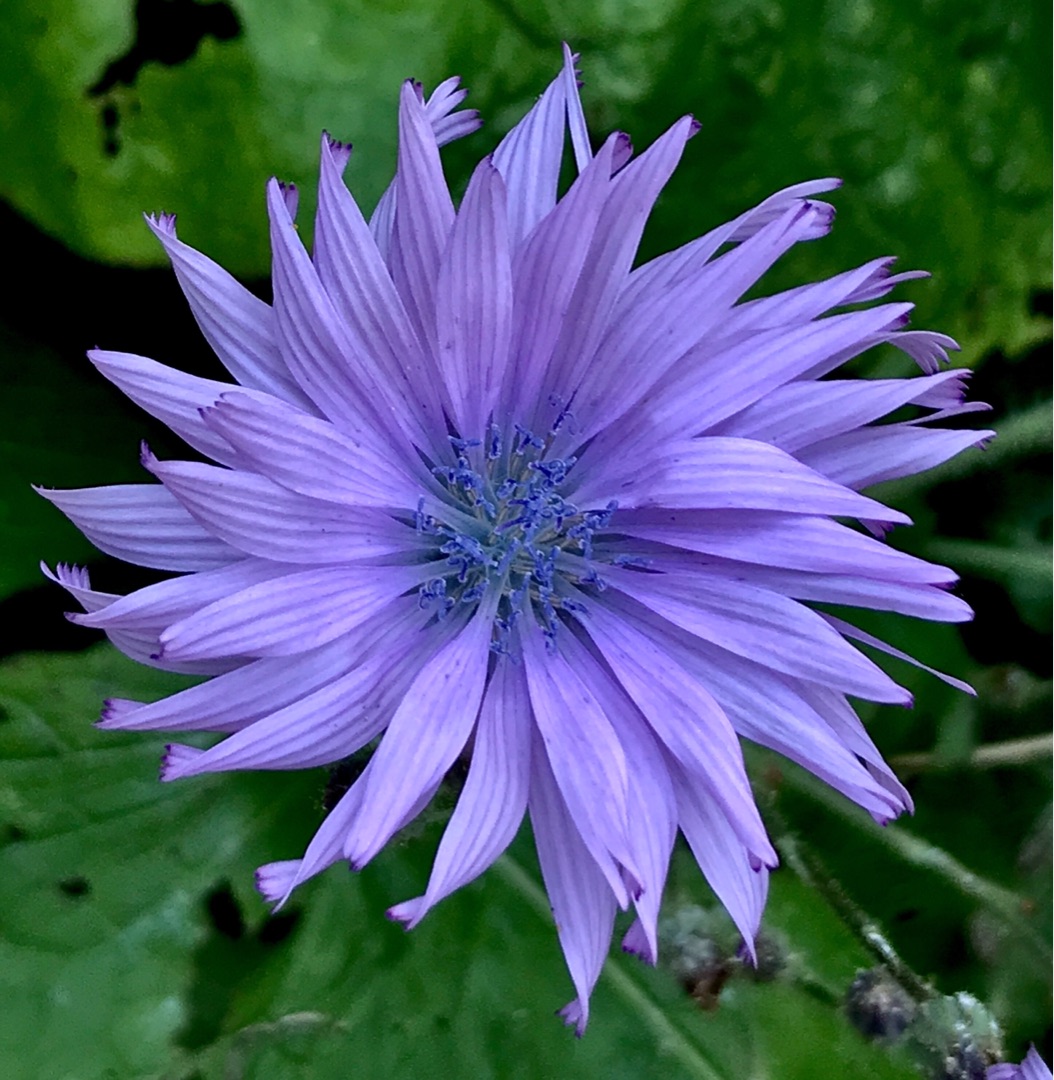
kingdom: Plantae
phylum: Tracheophyta
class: Magnoliopsida
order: Asterales
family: Asteraceae
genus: Lactuca
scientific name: Lactuca macrophylla
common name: Kæmpe-salat
